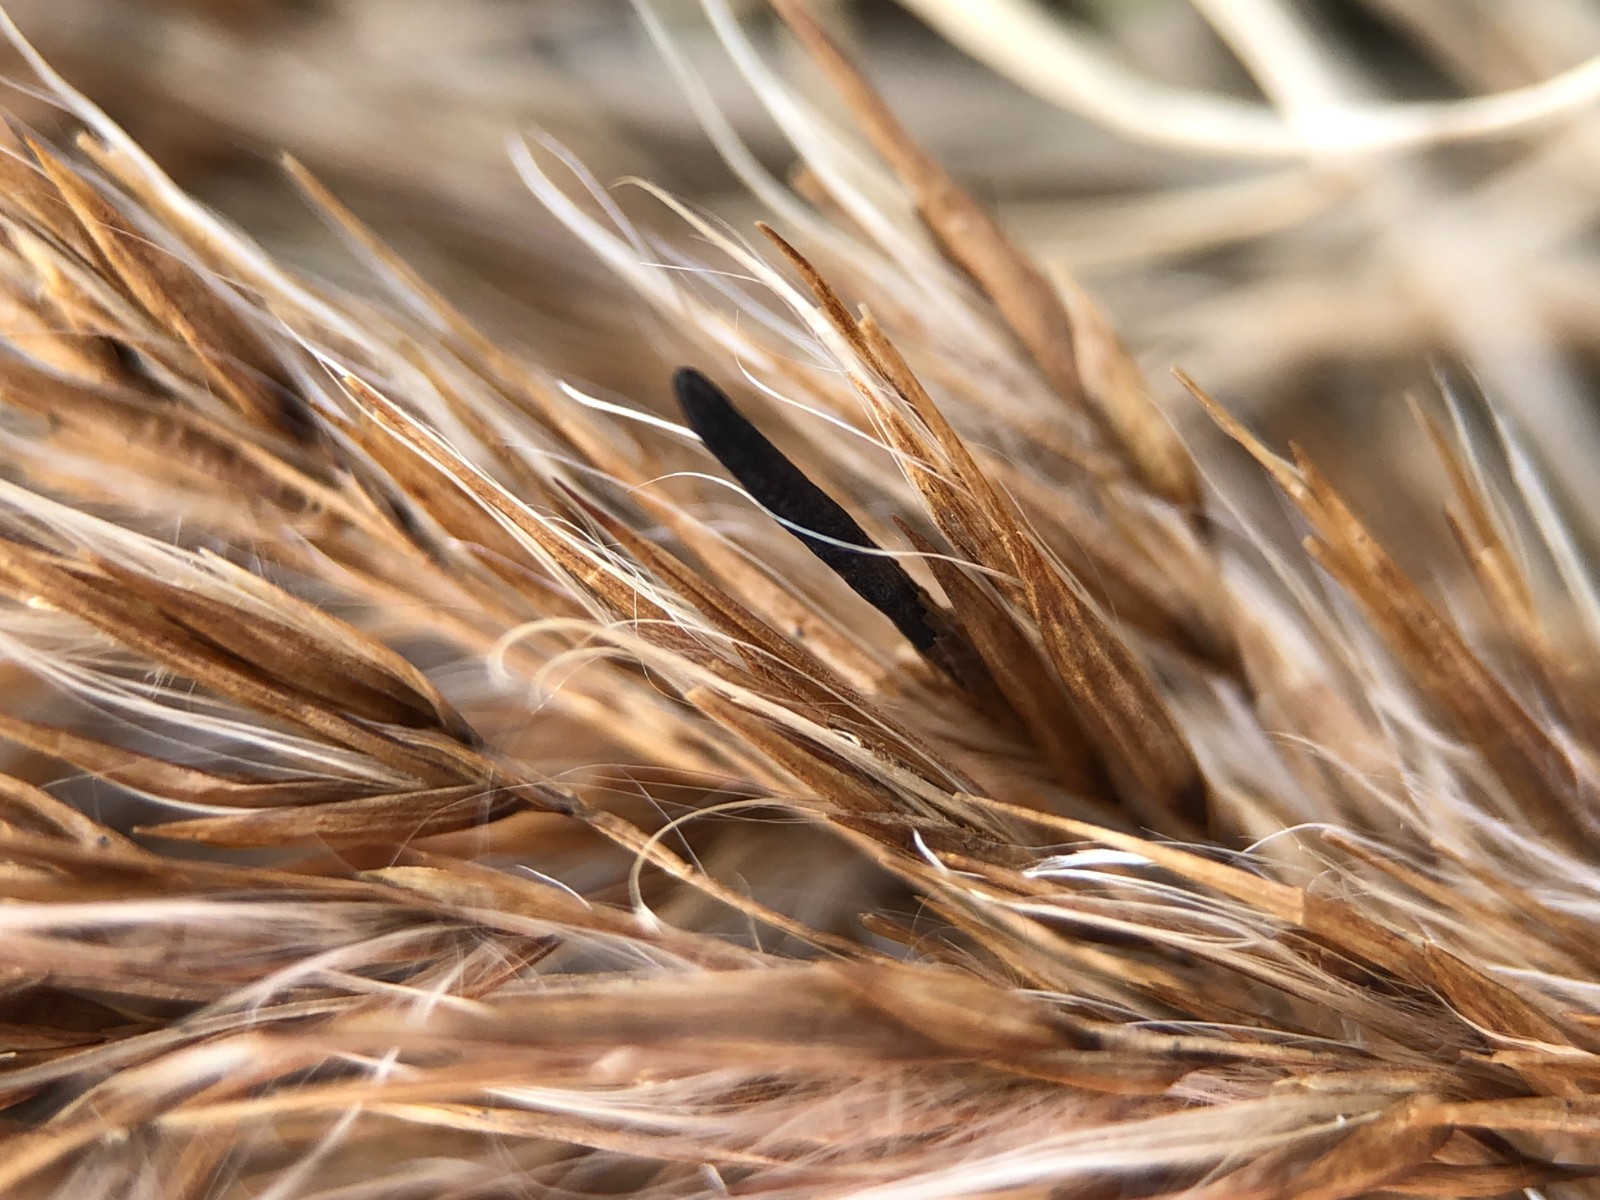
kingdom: Fungi
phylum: Ascomycota
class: Sordariomycetes
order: Hypocreales
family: Clavicipitaceae
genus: Claviceps
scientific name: Claviceps arundinis
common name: tagrør-meldrøjer
